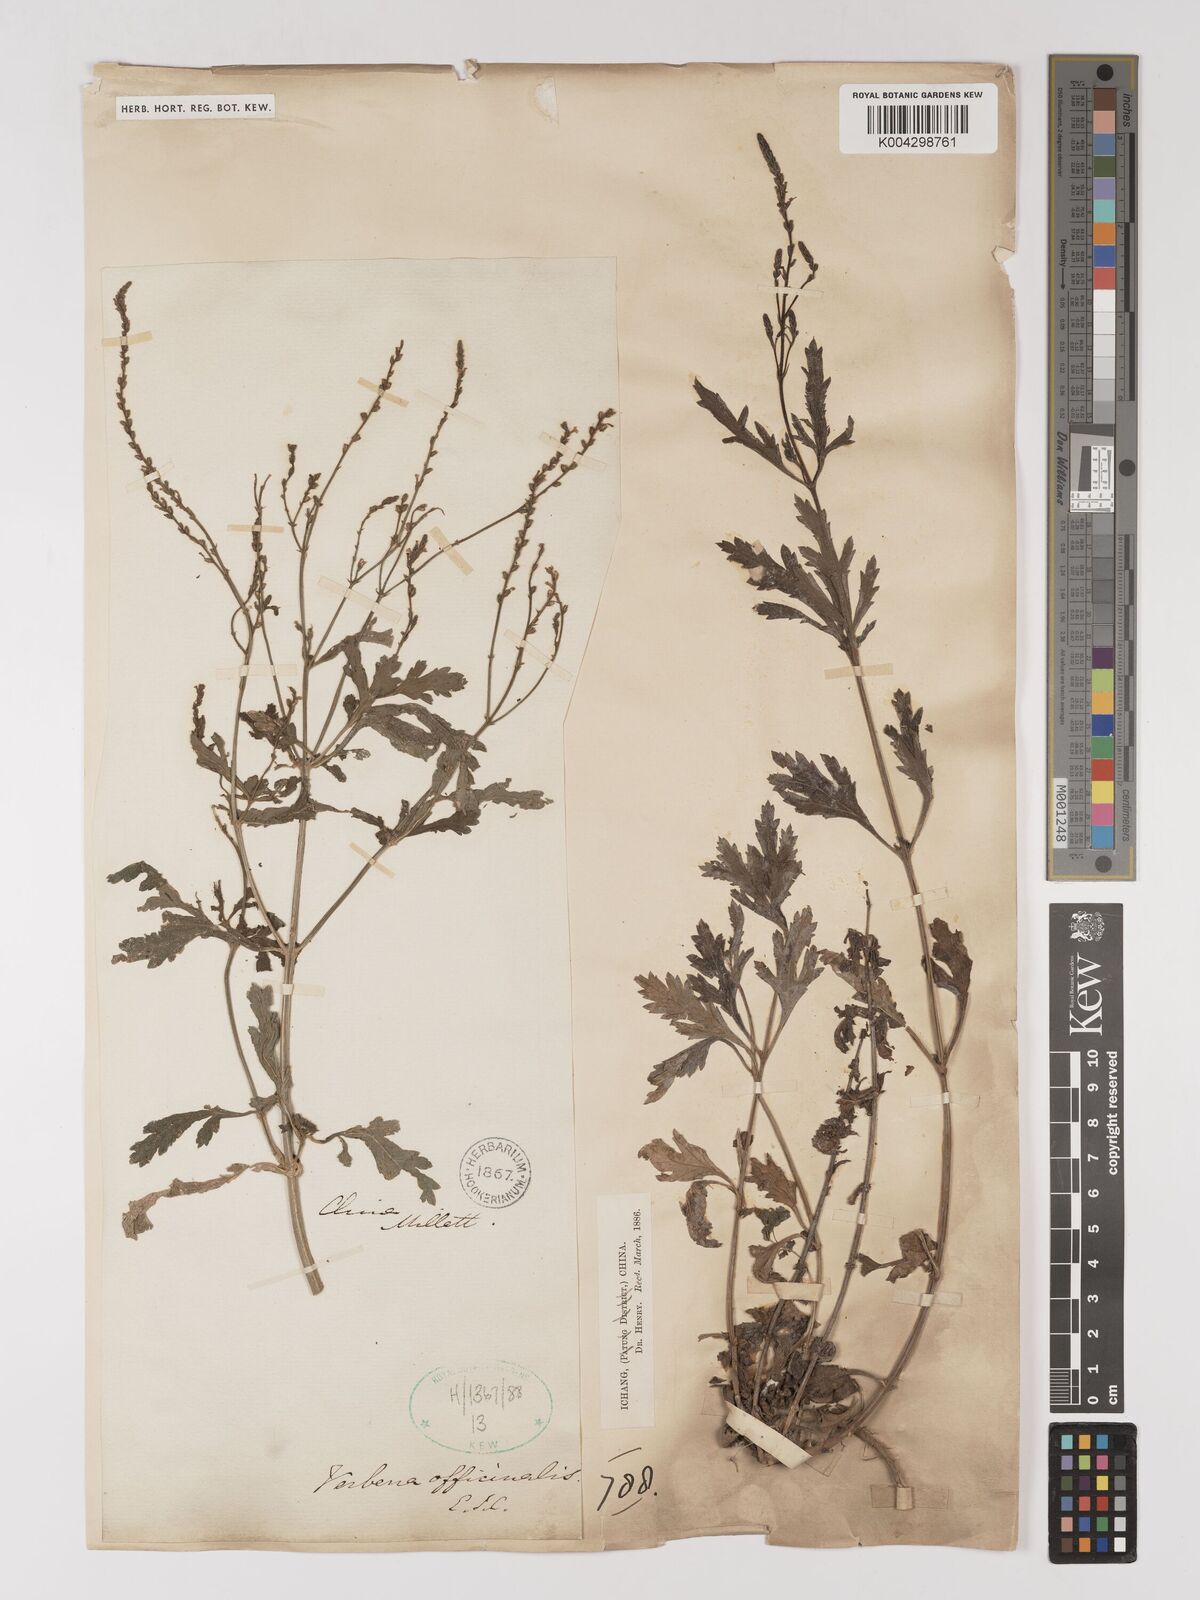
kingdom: Plantae
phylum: Tracheophyta
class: Magnoliopsida
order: Lamiales
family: Verbenaceae
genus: Verbena
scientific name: Verbena officinalis
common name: Vervain
